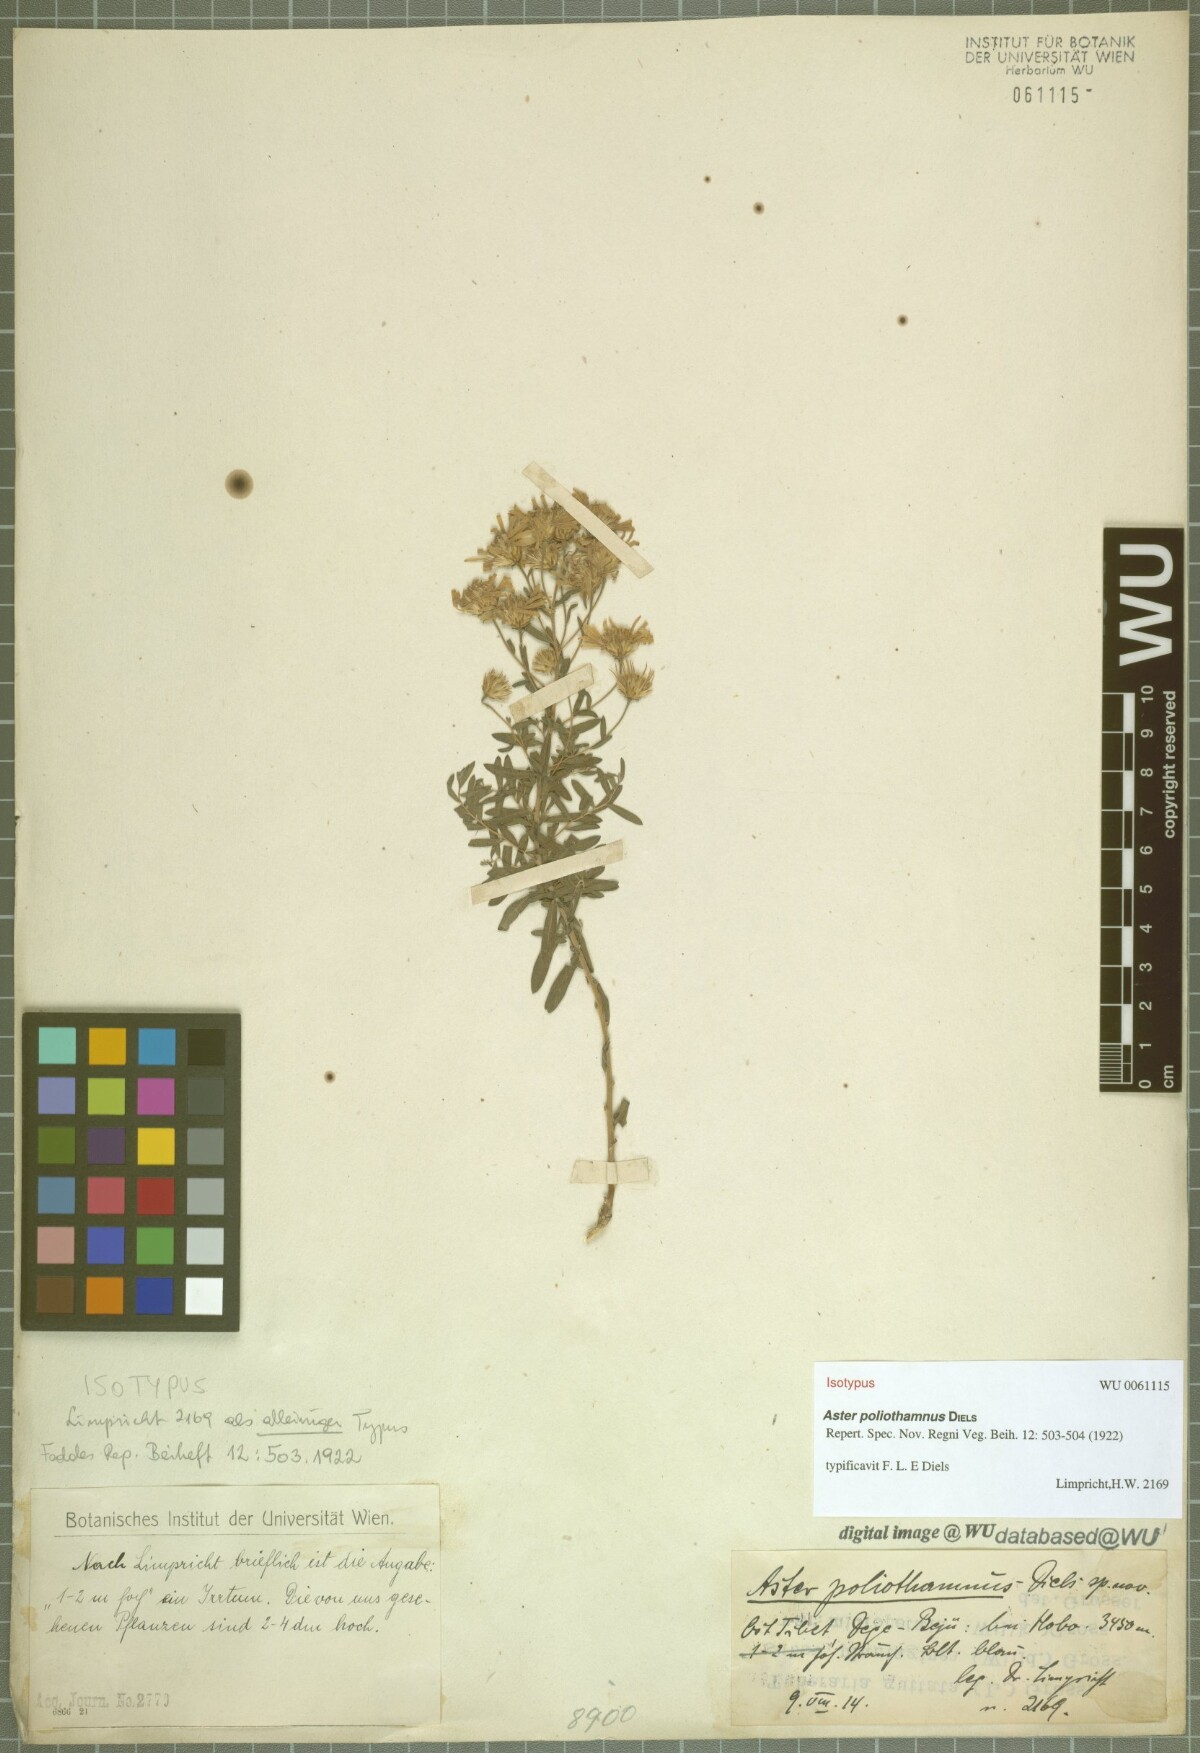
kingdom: Plantae
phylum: Tracheophyta
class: Magnoliopsida
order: Asterales
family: Asteraceae
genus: Sinobouffordia
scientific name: Sinobouffordia poliothamnus
